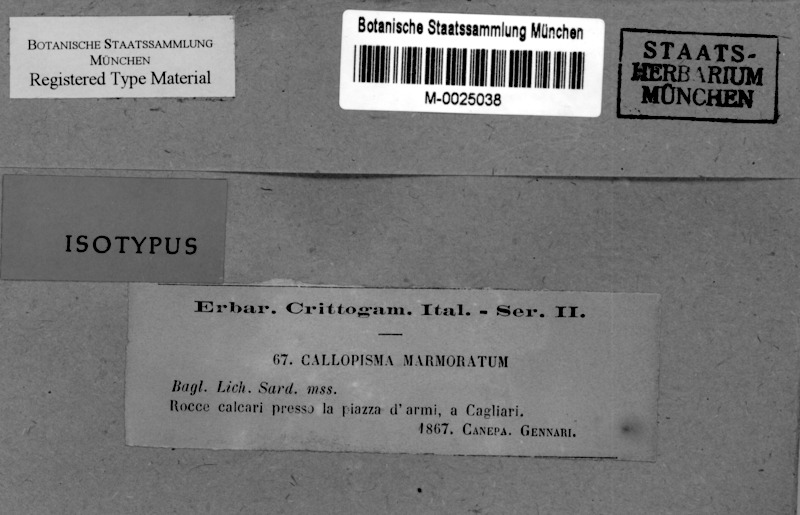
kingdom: Fungi
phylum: Ascomycota
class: Lecanoromycetes
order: Teloschistales
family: Teloschistaceae
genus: Xanthocarpia
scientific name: Xanthocarpia marmorata
